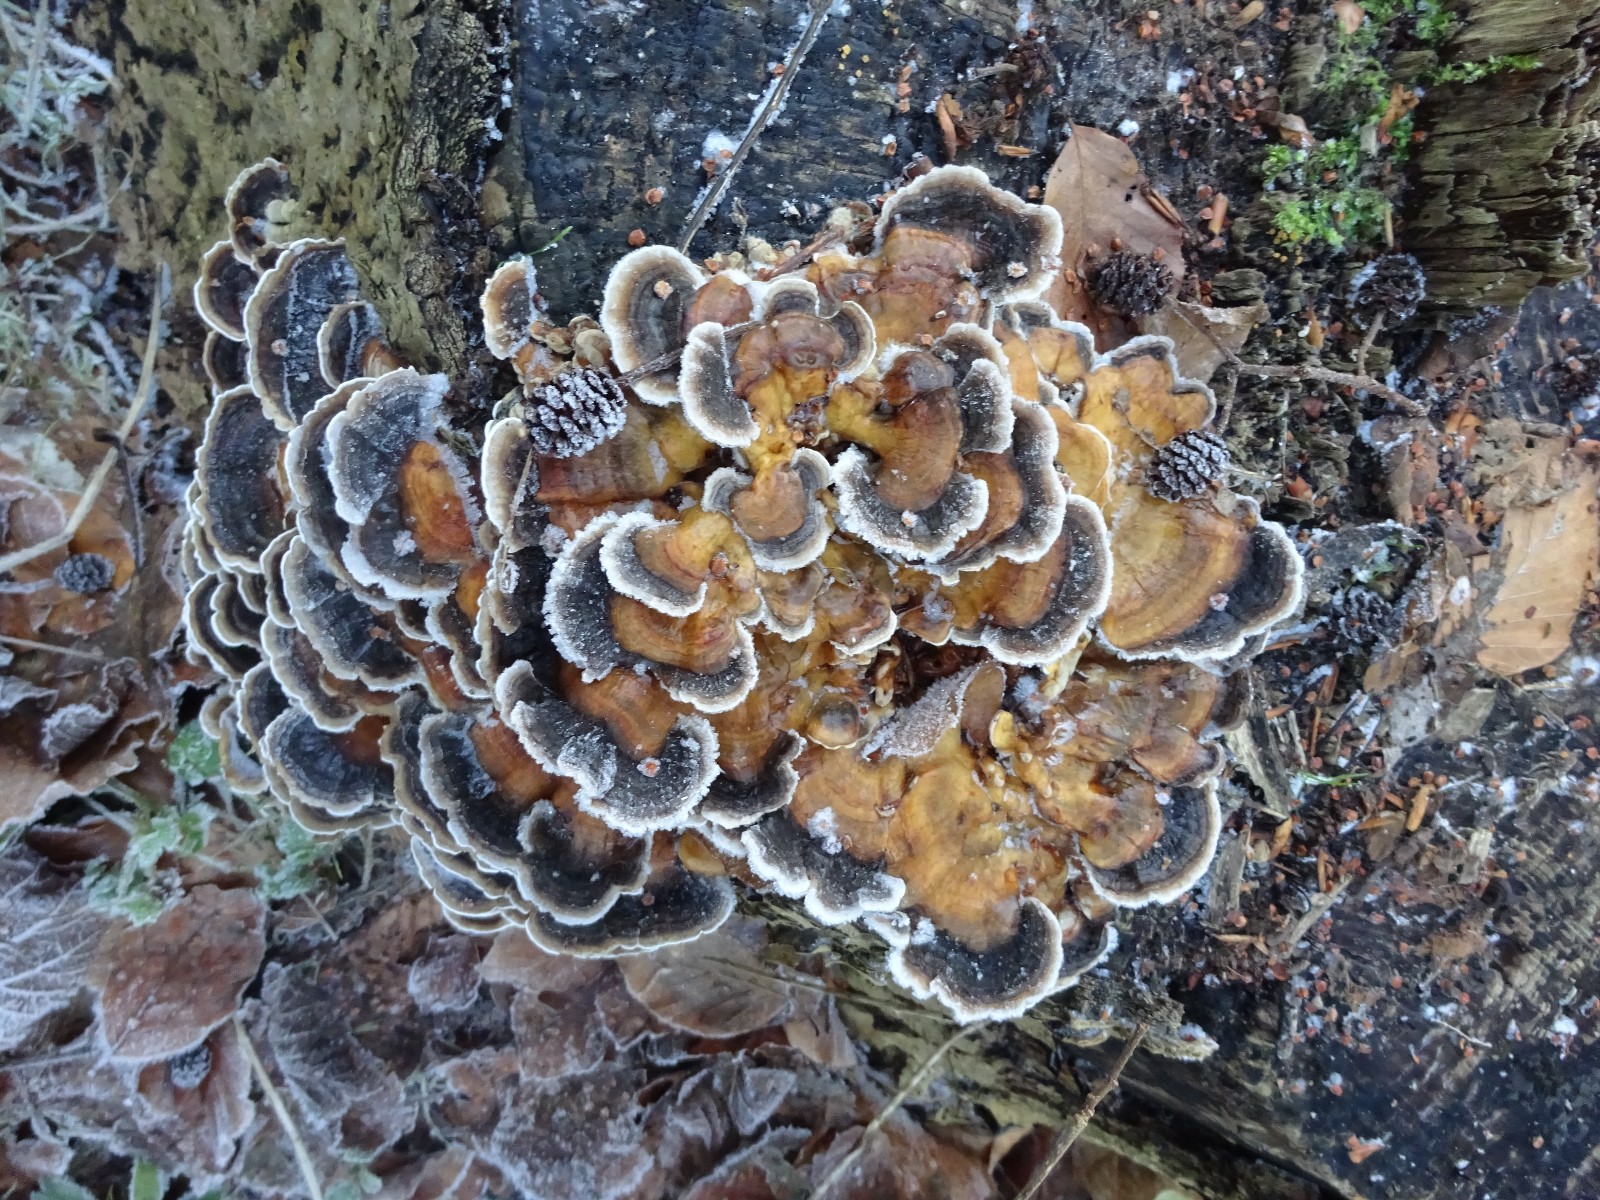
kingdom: Fungi
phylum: Basidiomycota
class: Agaricomycetes
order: Polyporales
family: Polyporaceae
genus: Trametes
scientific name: Trametes versicolor
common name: broget læderporesvamp
